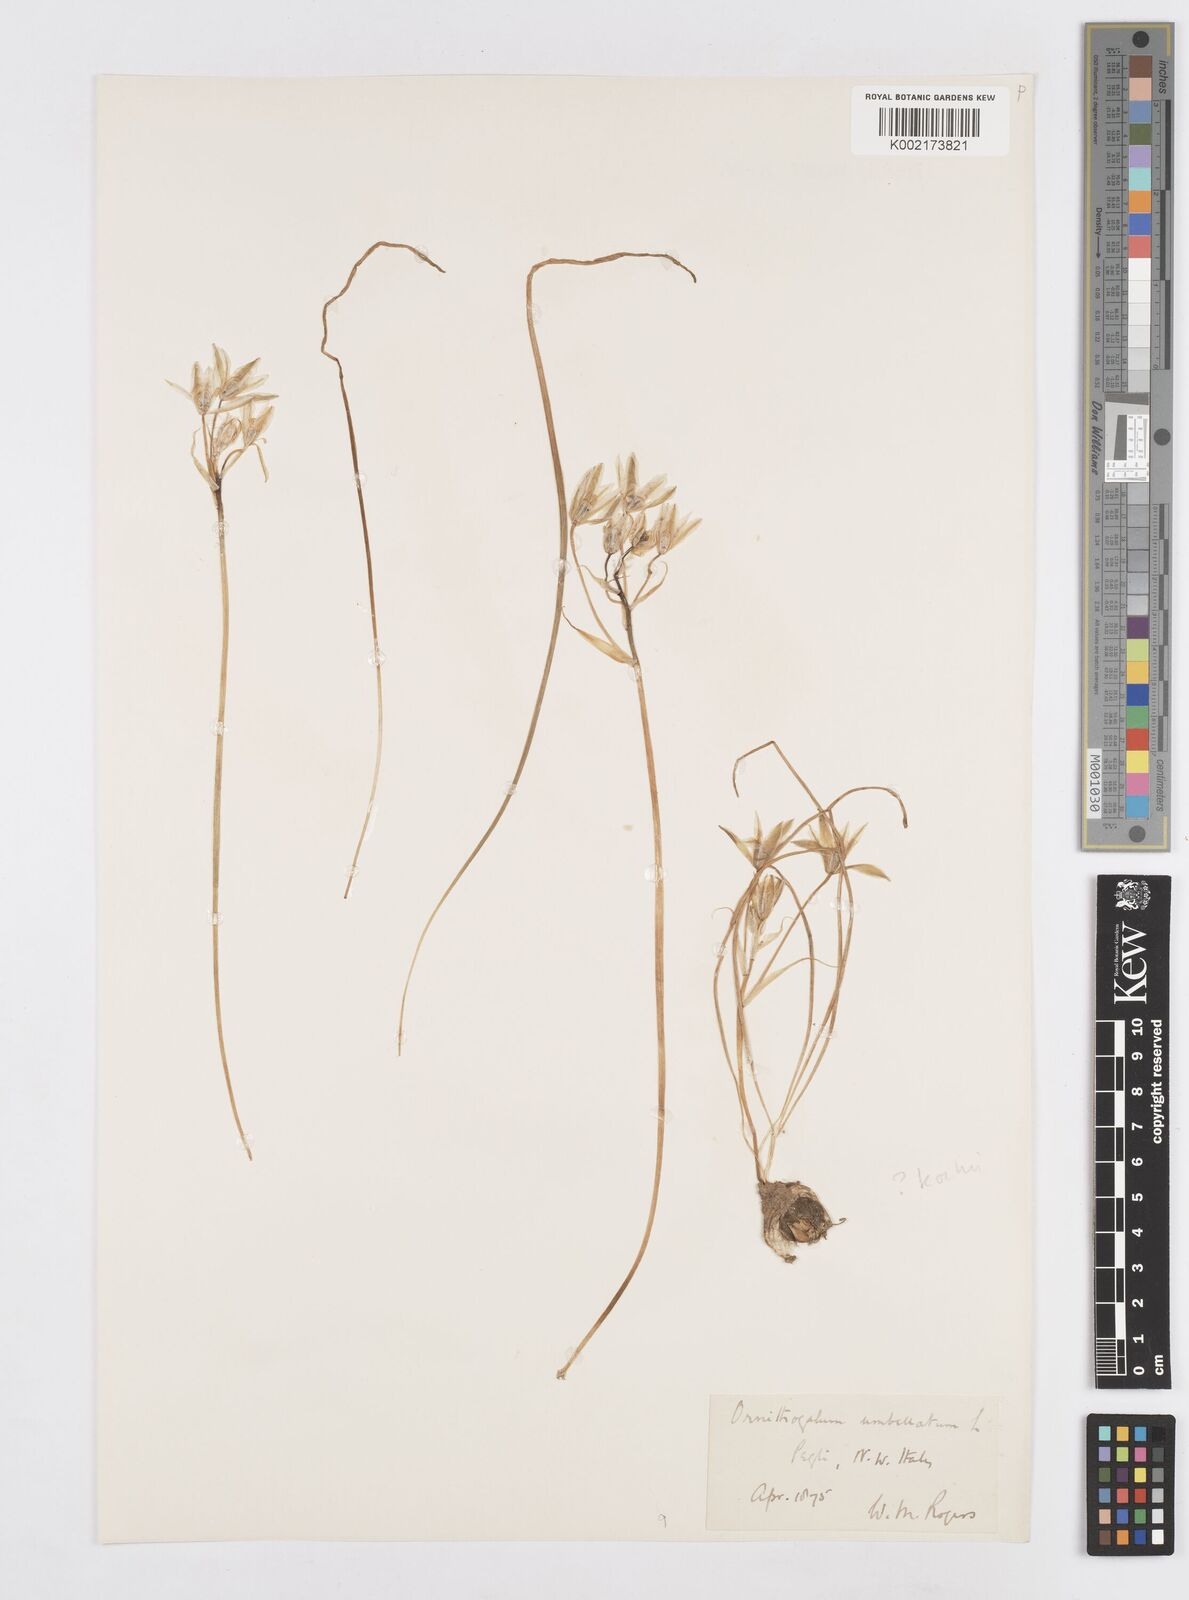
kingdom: Plantae
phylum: Tracheophyta
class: Liliopsida
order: Asparagales
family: Asparagaceae
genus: Ornithogalum
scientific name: Ornithogalum umbellatum
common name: Garden star-of-bethlehem
